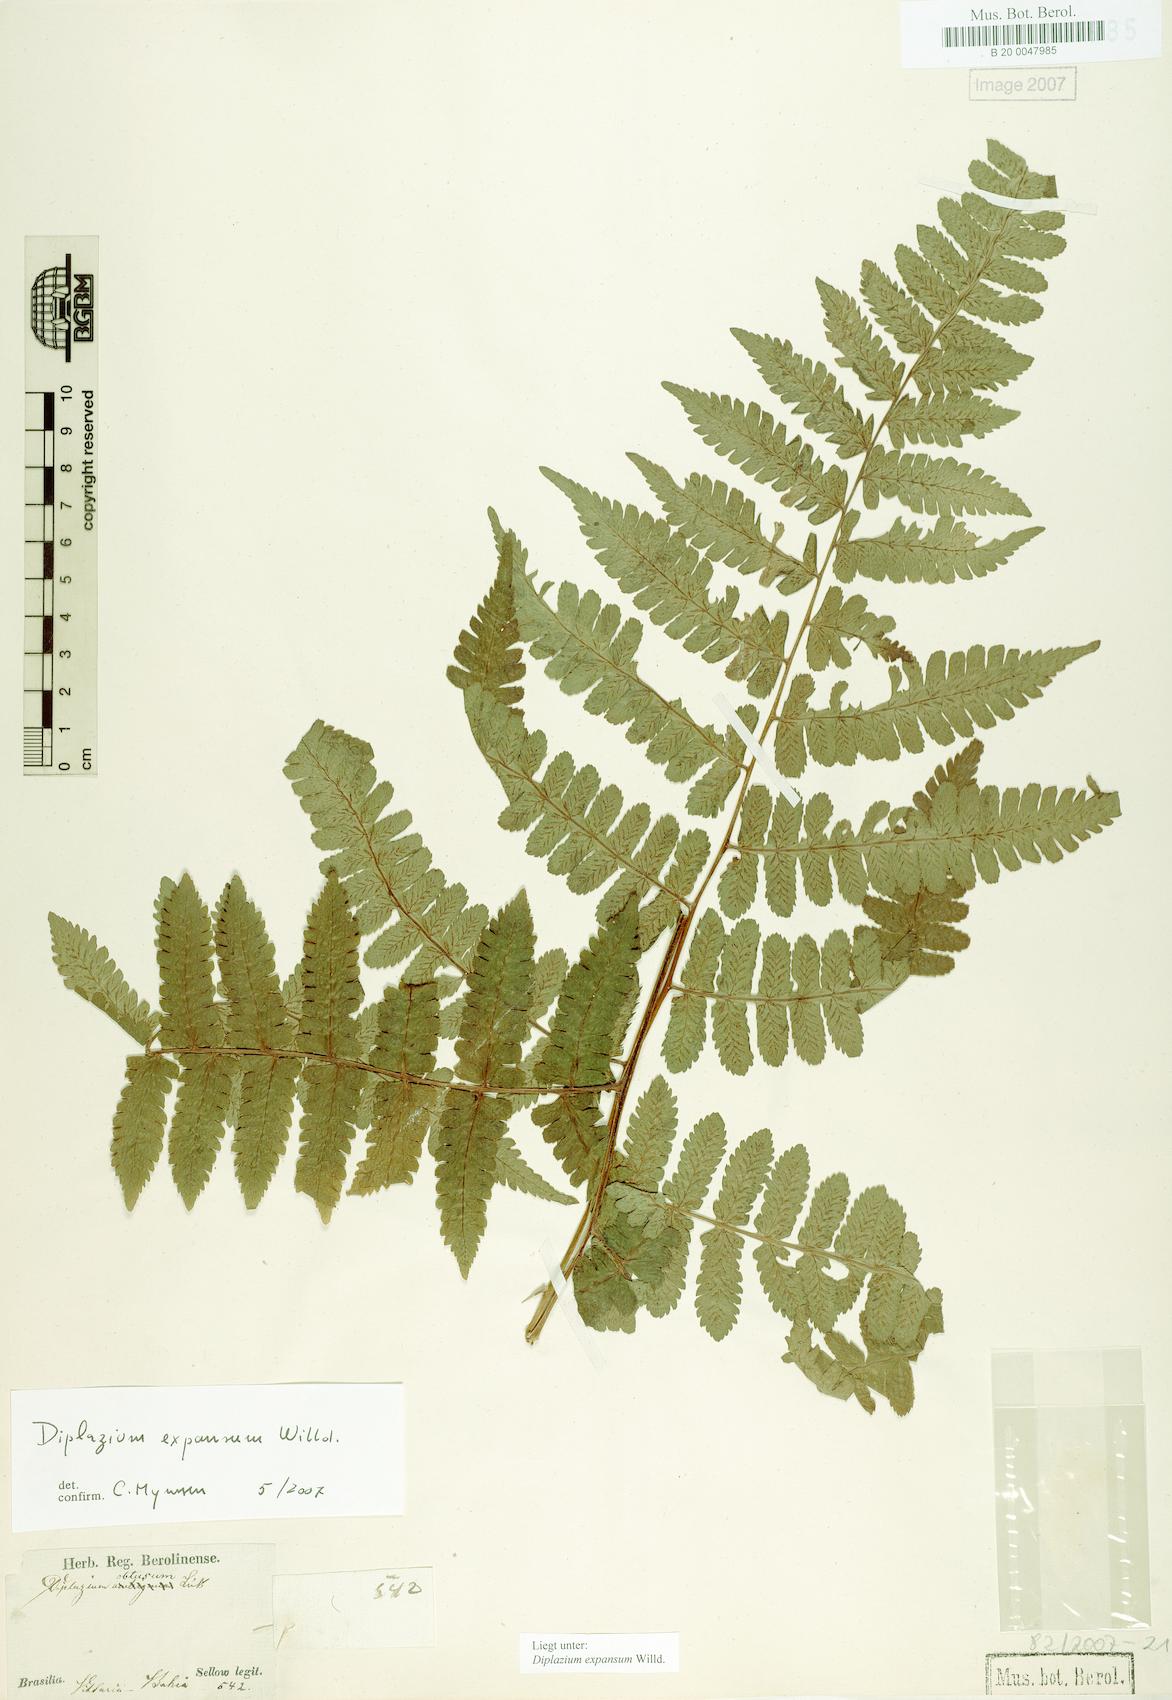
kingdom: Plantae
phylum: Tracheophyta
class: Polypodiopsida
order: Polypodiales
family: Athyriaceae
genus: Diplazium
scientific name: Diplazium expansum
